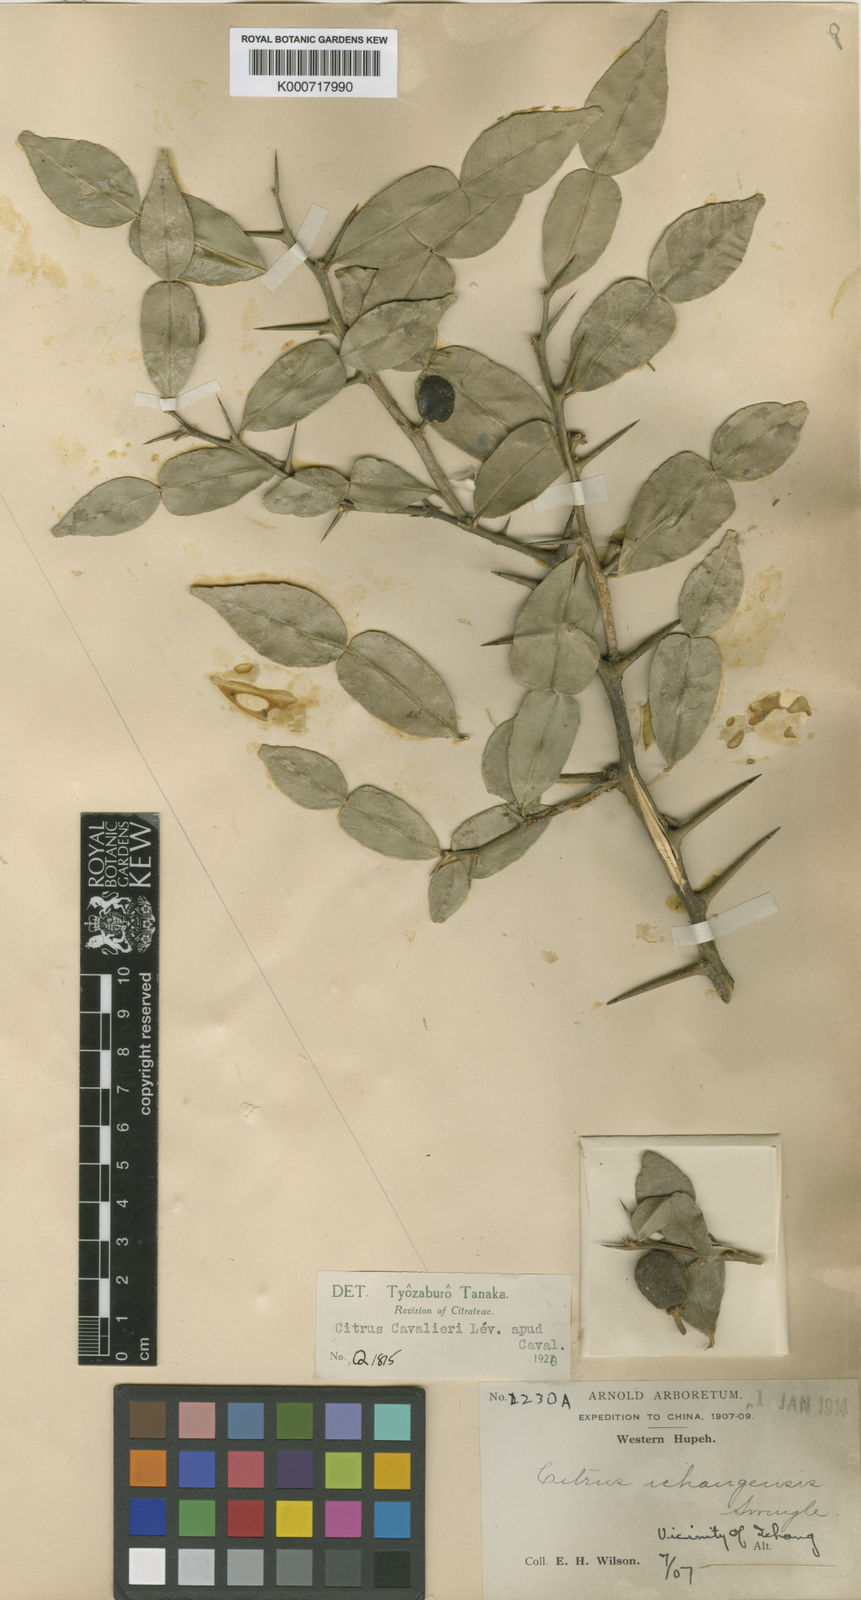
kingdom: Plantae
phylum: Tracheophyta
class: Magnoliopsida
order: Sapindales
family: Rutaceae
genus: Citrus
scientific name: Citrus cavaleriei
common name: Ichang-papeda
